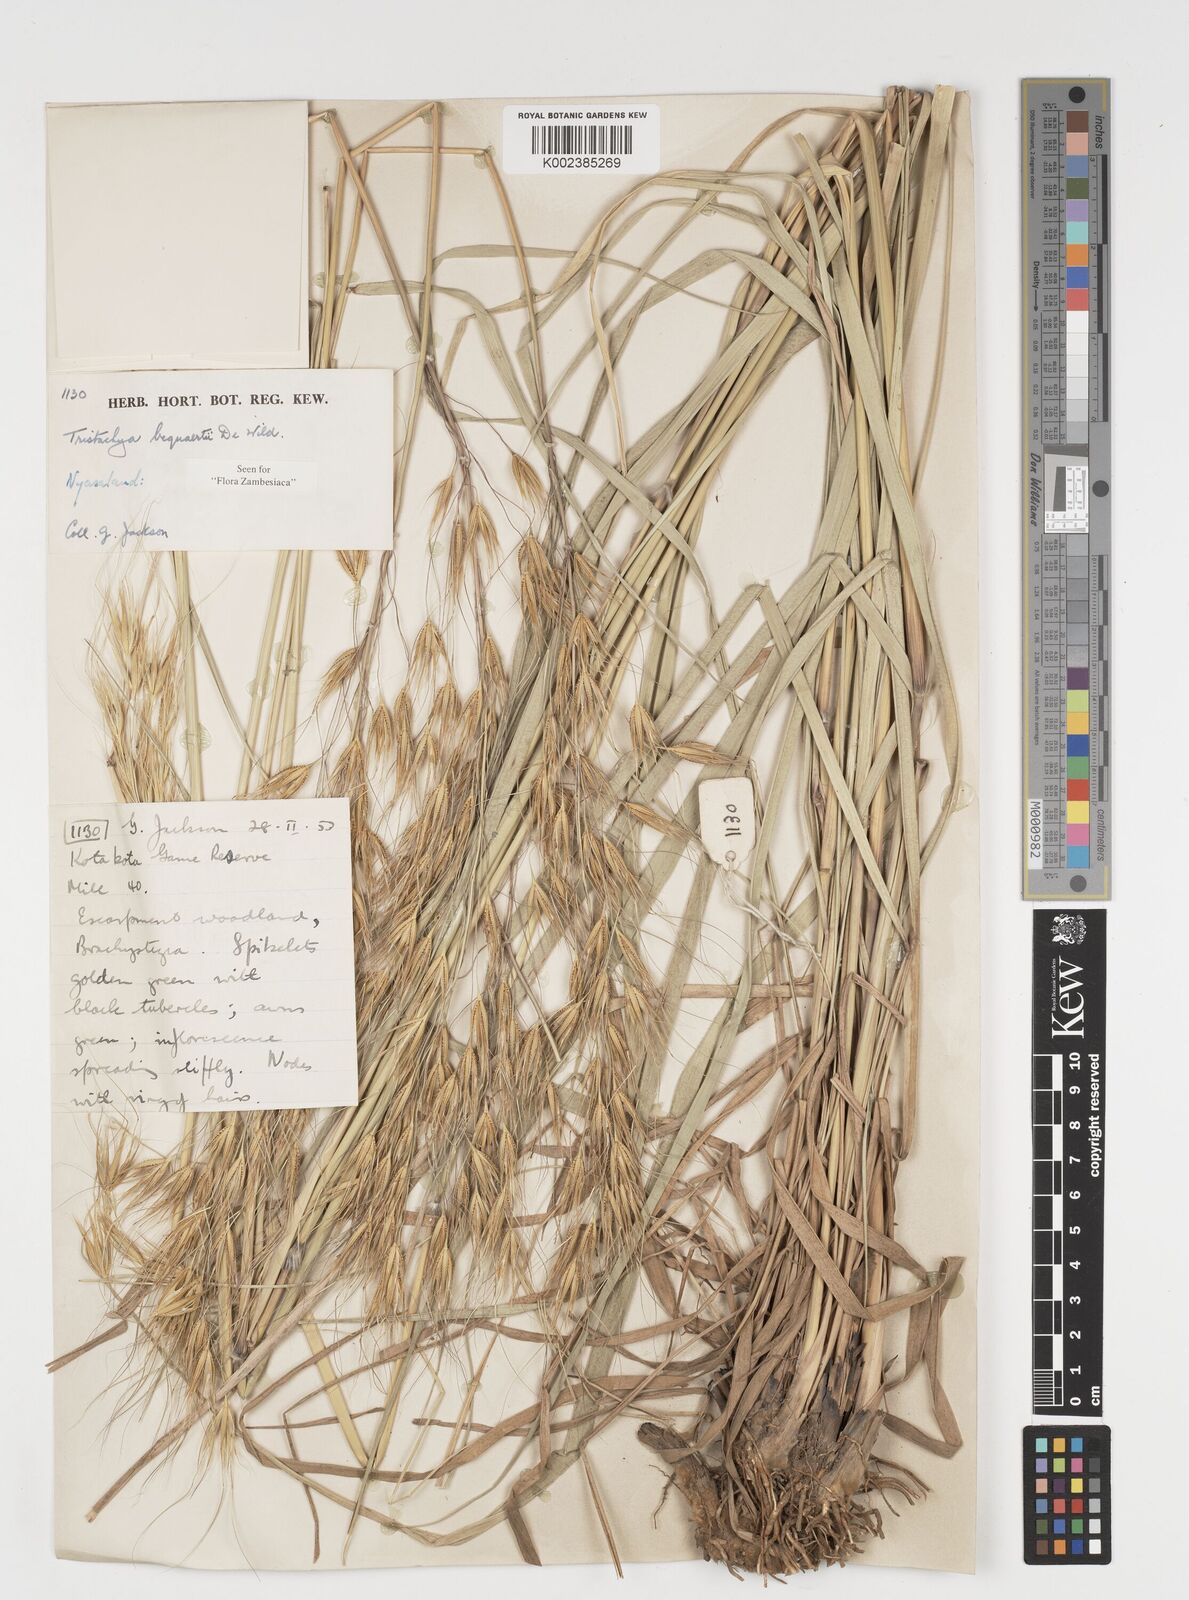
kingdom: Plantae
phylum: Tracheophyta
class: Liliopsida
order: Poales
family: Poaceae
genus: Tristachya
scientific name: Tristachya bequaertii
